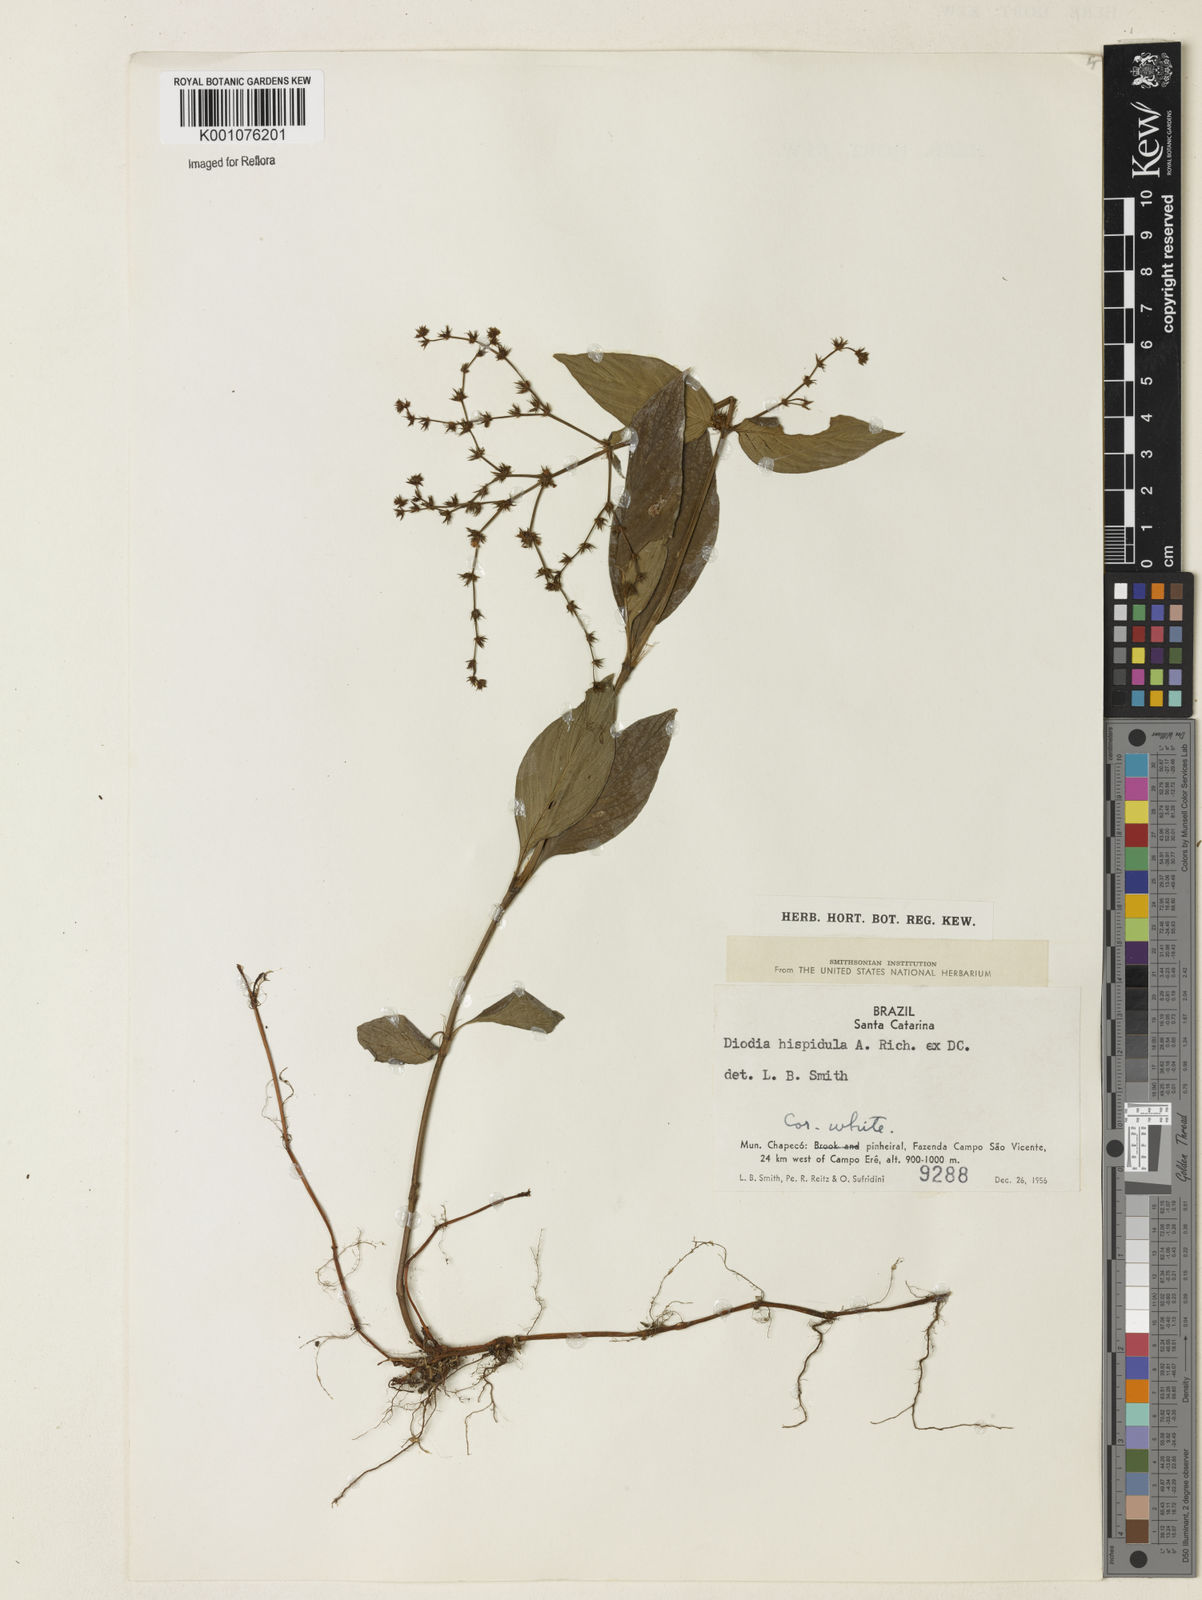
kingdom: Plantae
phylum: Tracheophyta
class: Magnoliopsida
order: Gentianales
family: Rubiaceae
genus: Spermacoce
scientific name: Spermacoce
